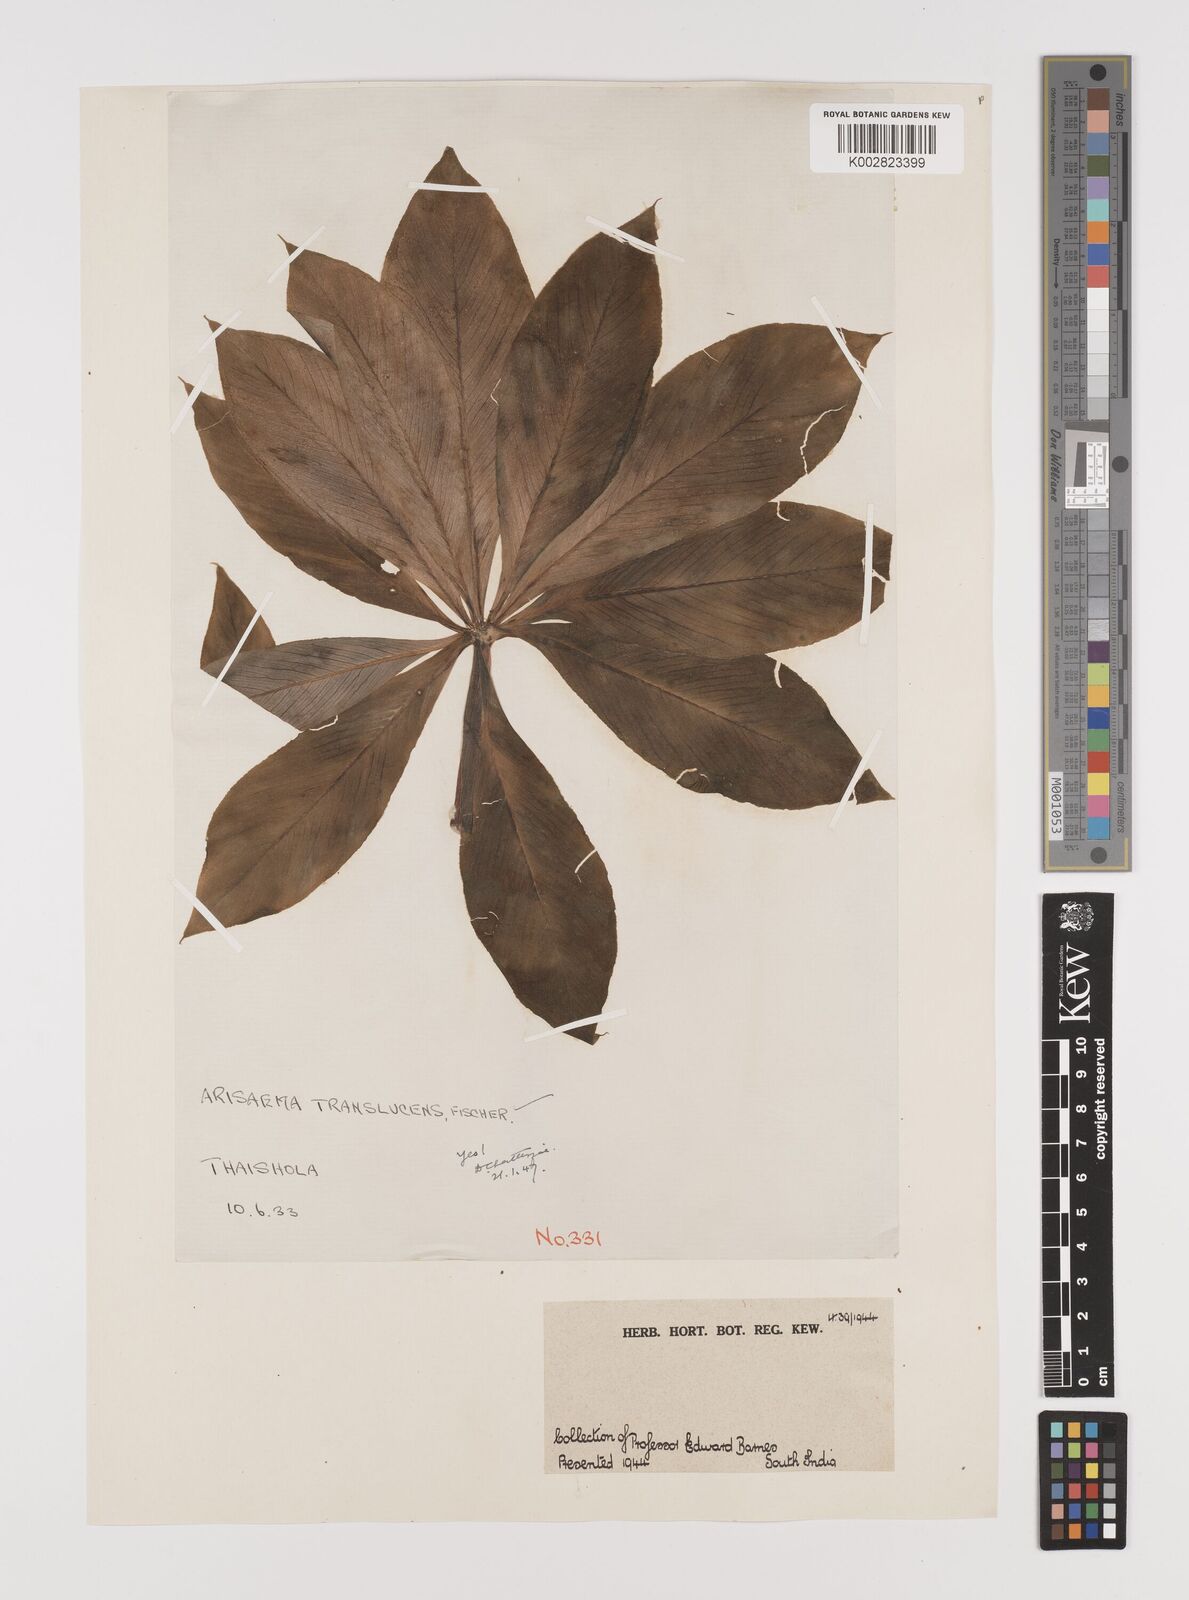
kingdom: Plantae
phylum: Tracheophyta
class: Liliopsida
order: Alismatales
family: Araceae
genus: Arisaema
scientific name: Arisaema translucens
